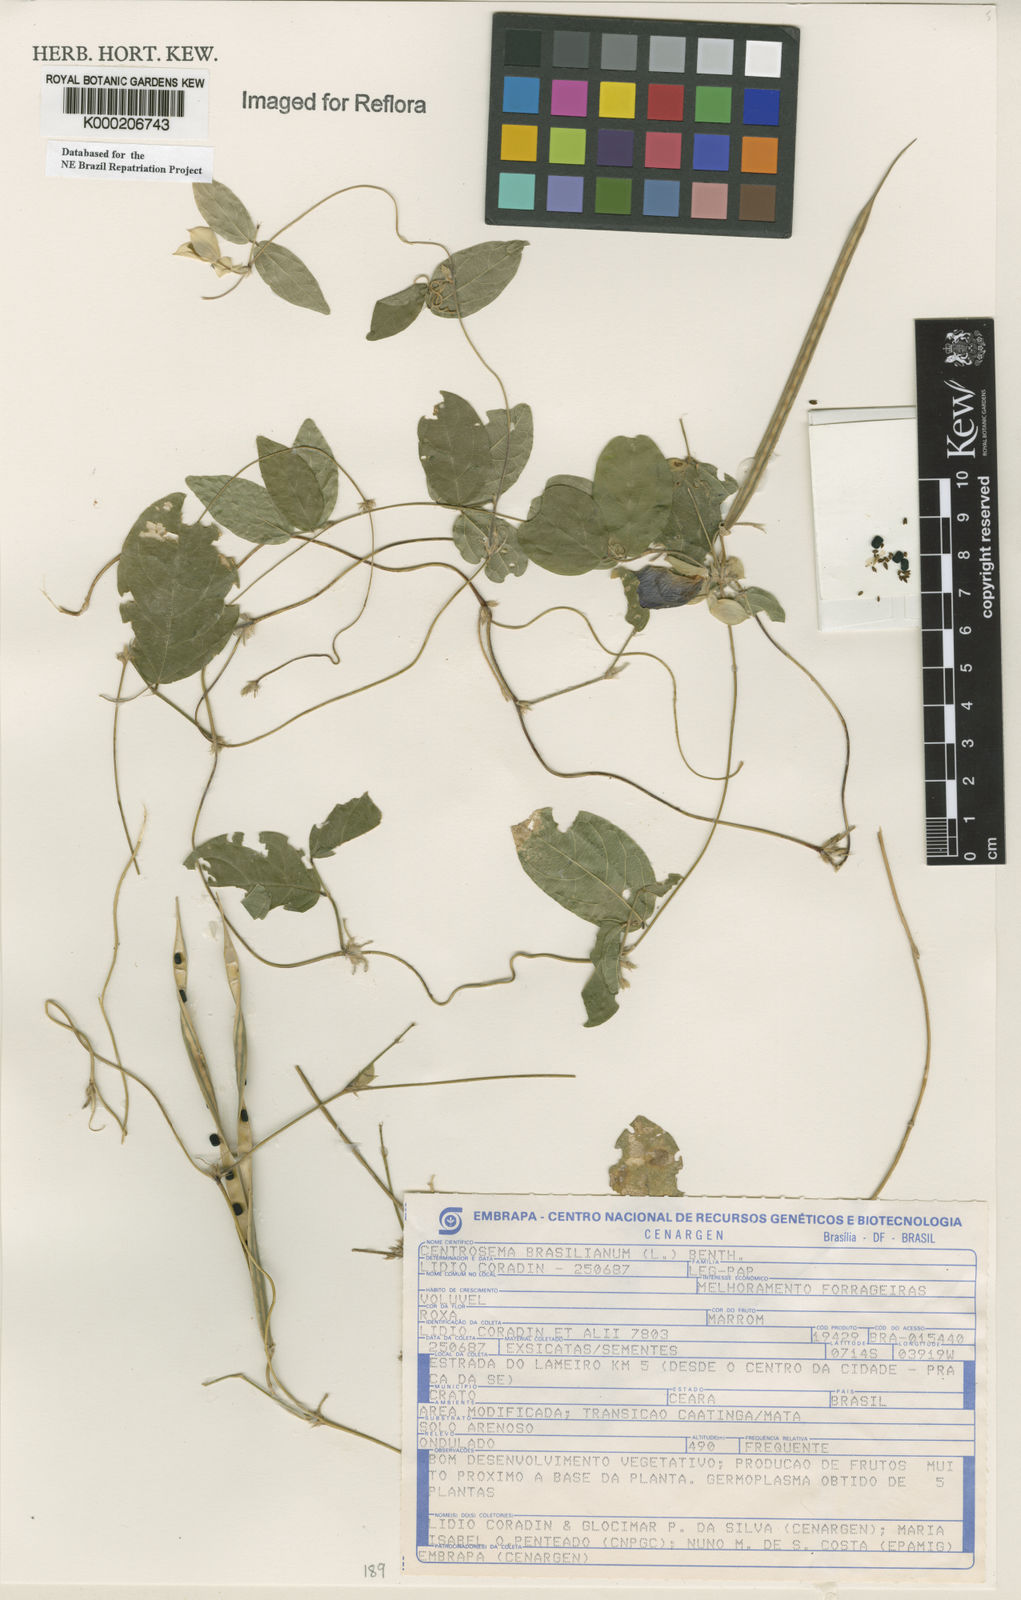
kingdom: Plantae
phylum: Tracheophyta
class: Magnoliopsida
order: Fabales
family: Fabaceae
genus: Centrosema
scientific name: Centrosema brasilianum
